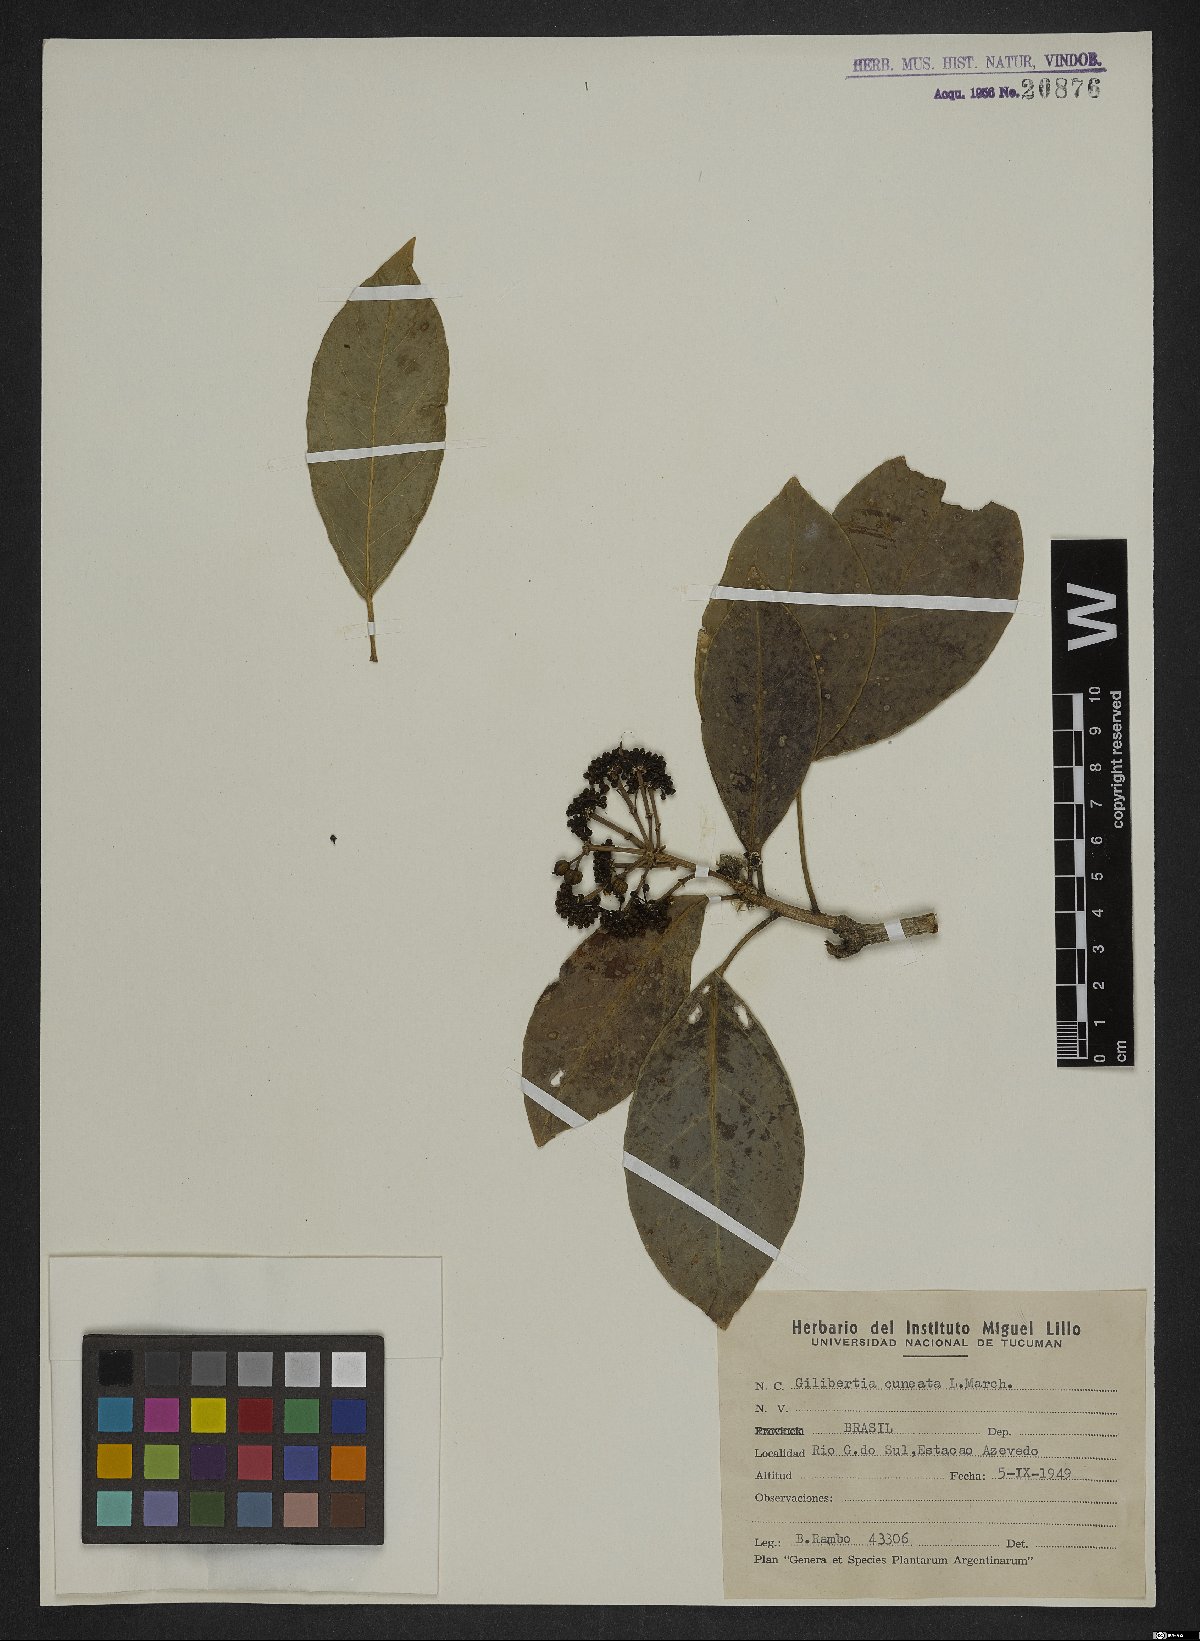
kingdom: Plantae
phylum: Tracheophyta
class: Magnoliopsida
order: Apiales
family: Araliaceae
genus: Dendropanax
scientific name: Dendropanax cuneatus
